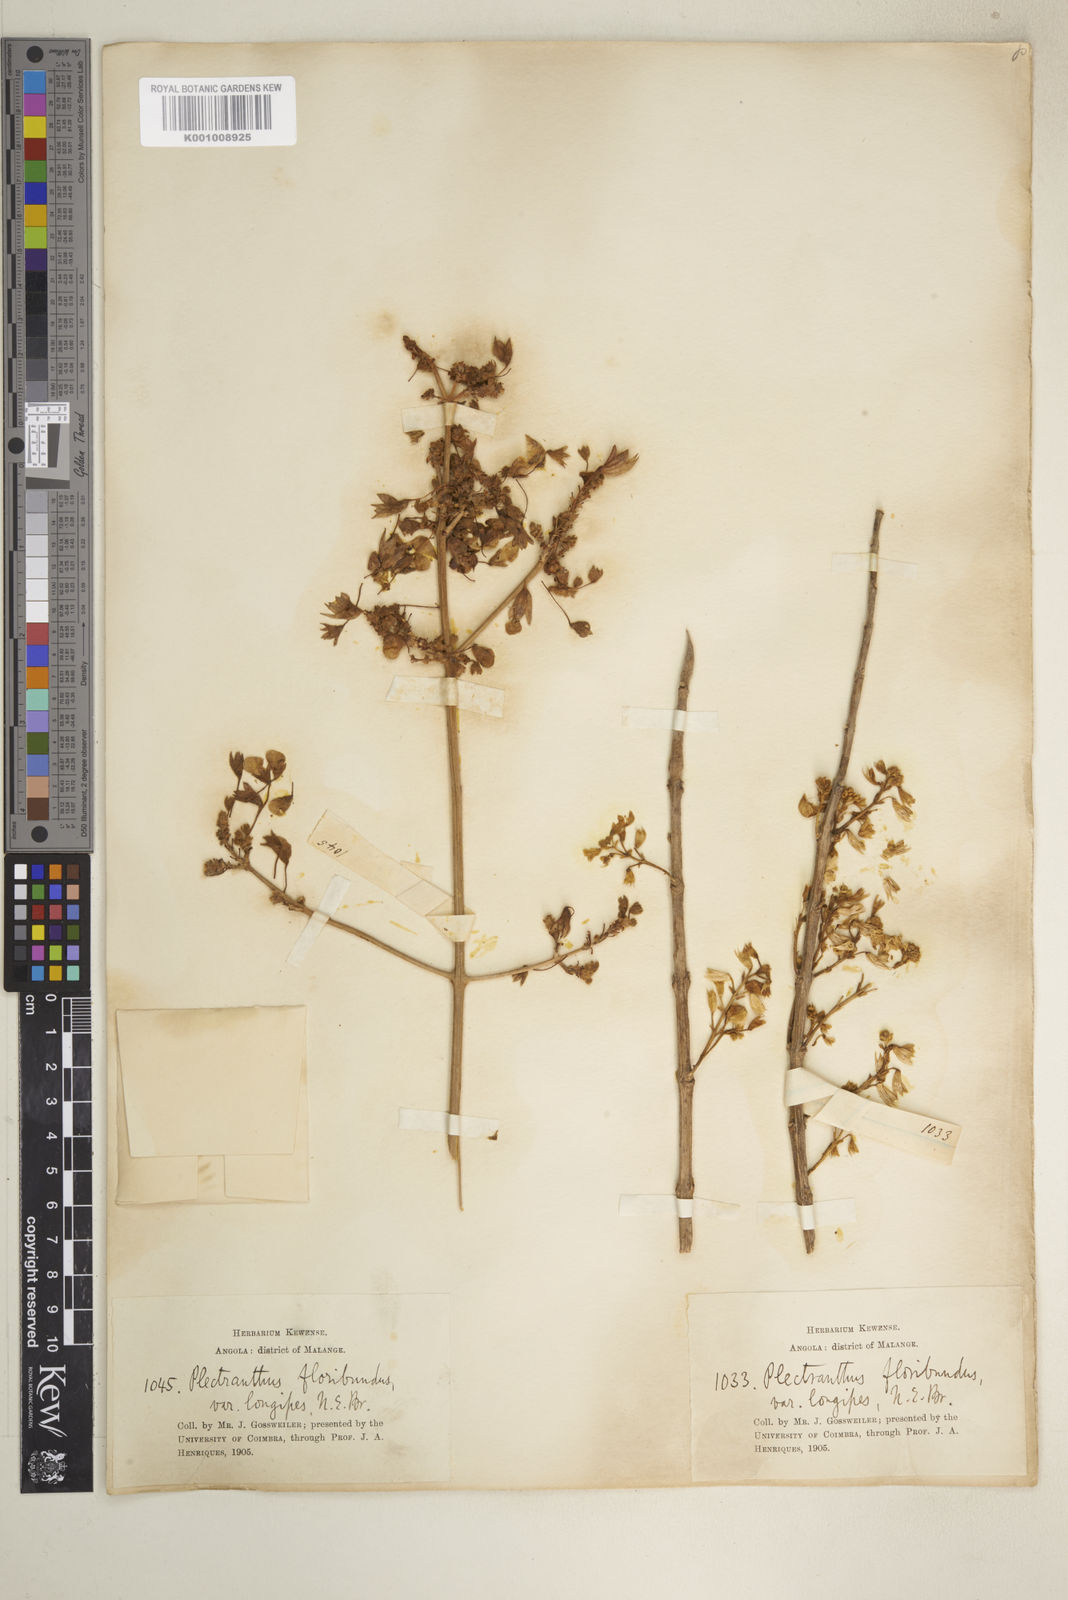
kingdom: Plantae
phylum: Tracheophyta
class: Magnoliopsida
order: Lamiales
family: Lamiaceae
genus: Coleus
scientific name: Coleus esculentus
